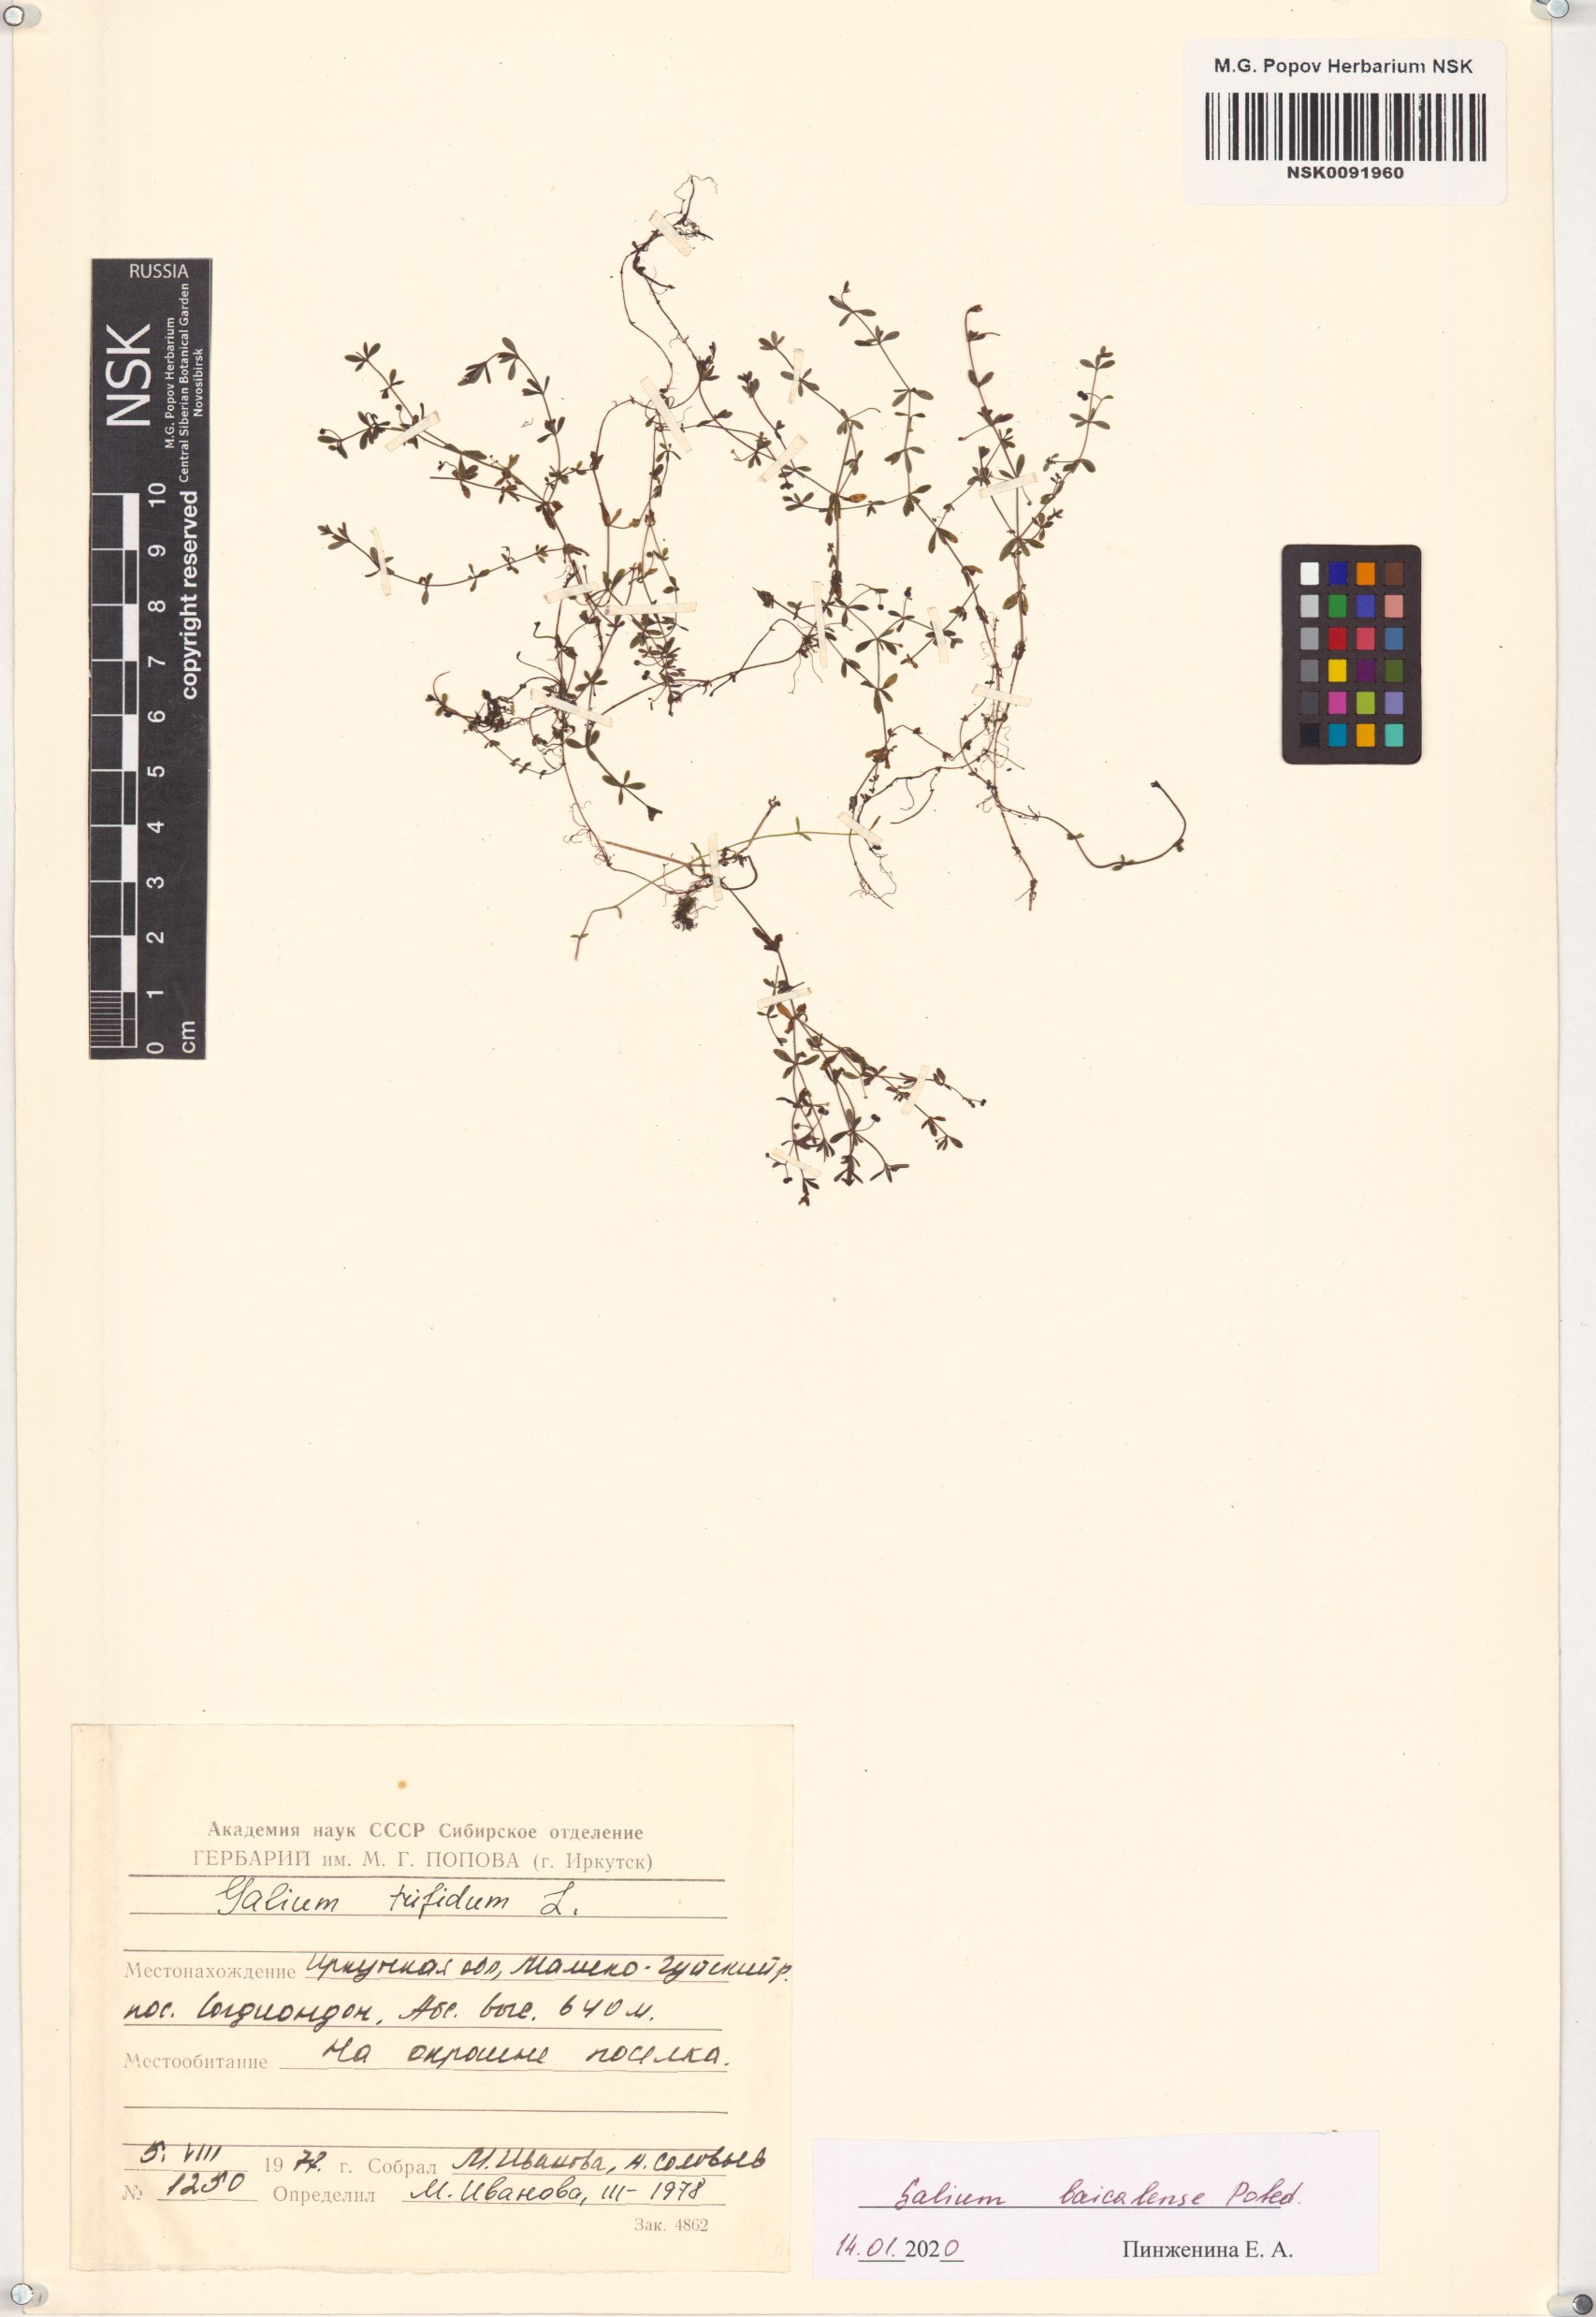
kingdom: Plantae
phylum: Tracheophyta
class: Magnoliopsida
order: Gentianales
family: Rubiaceae
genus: Galium
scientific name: Galium trifidum
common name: Small bedstraw
